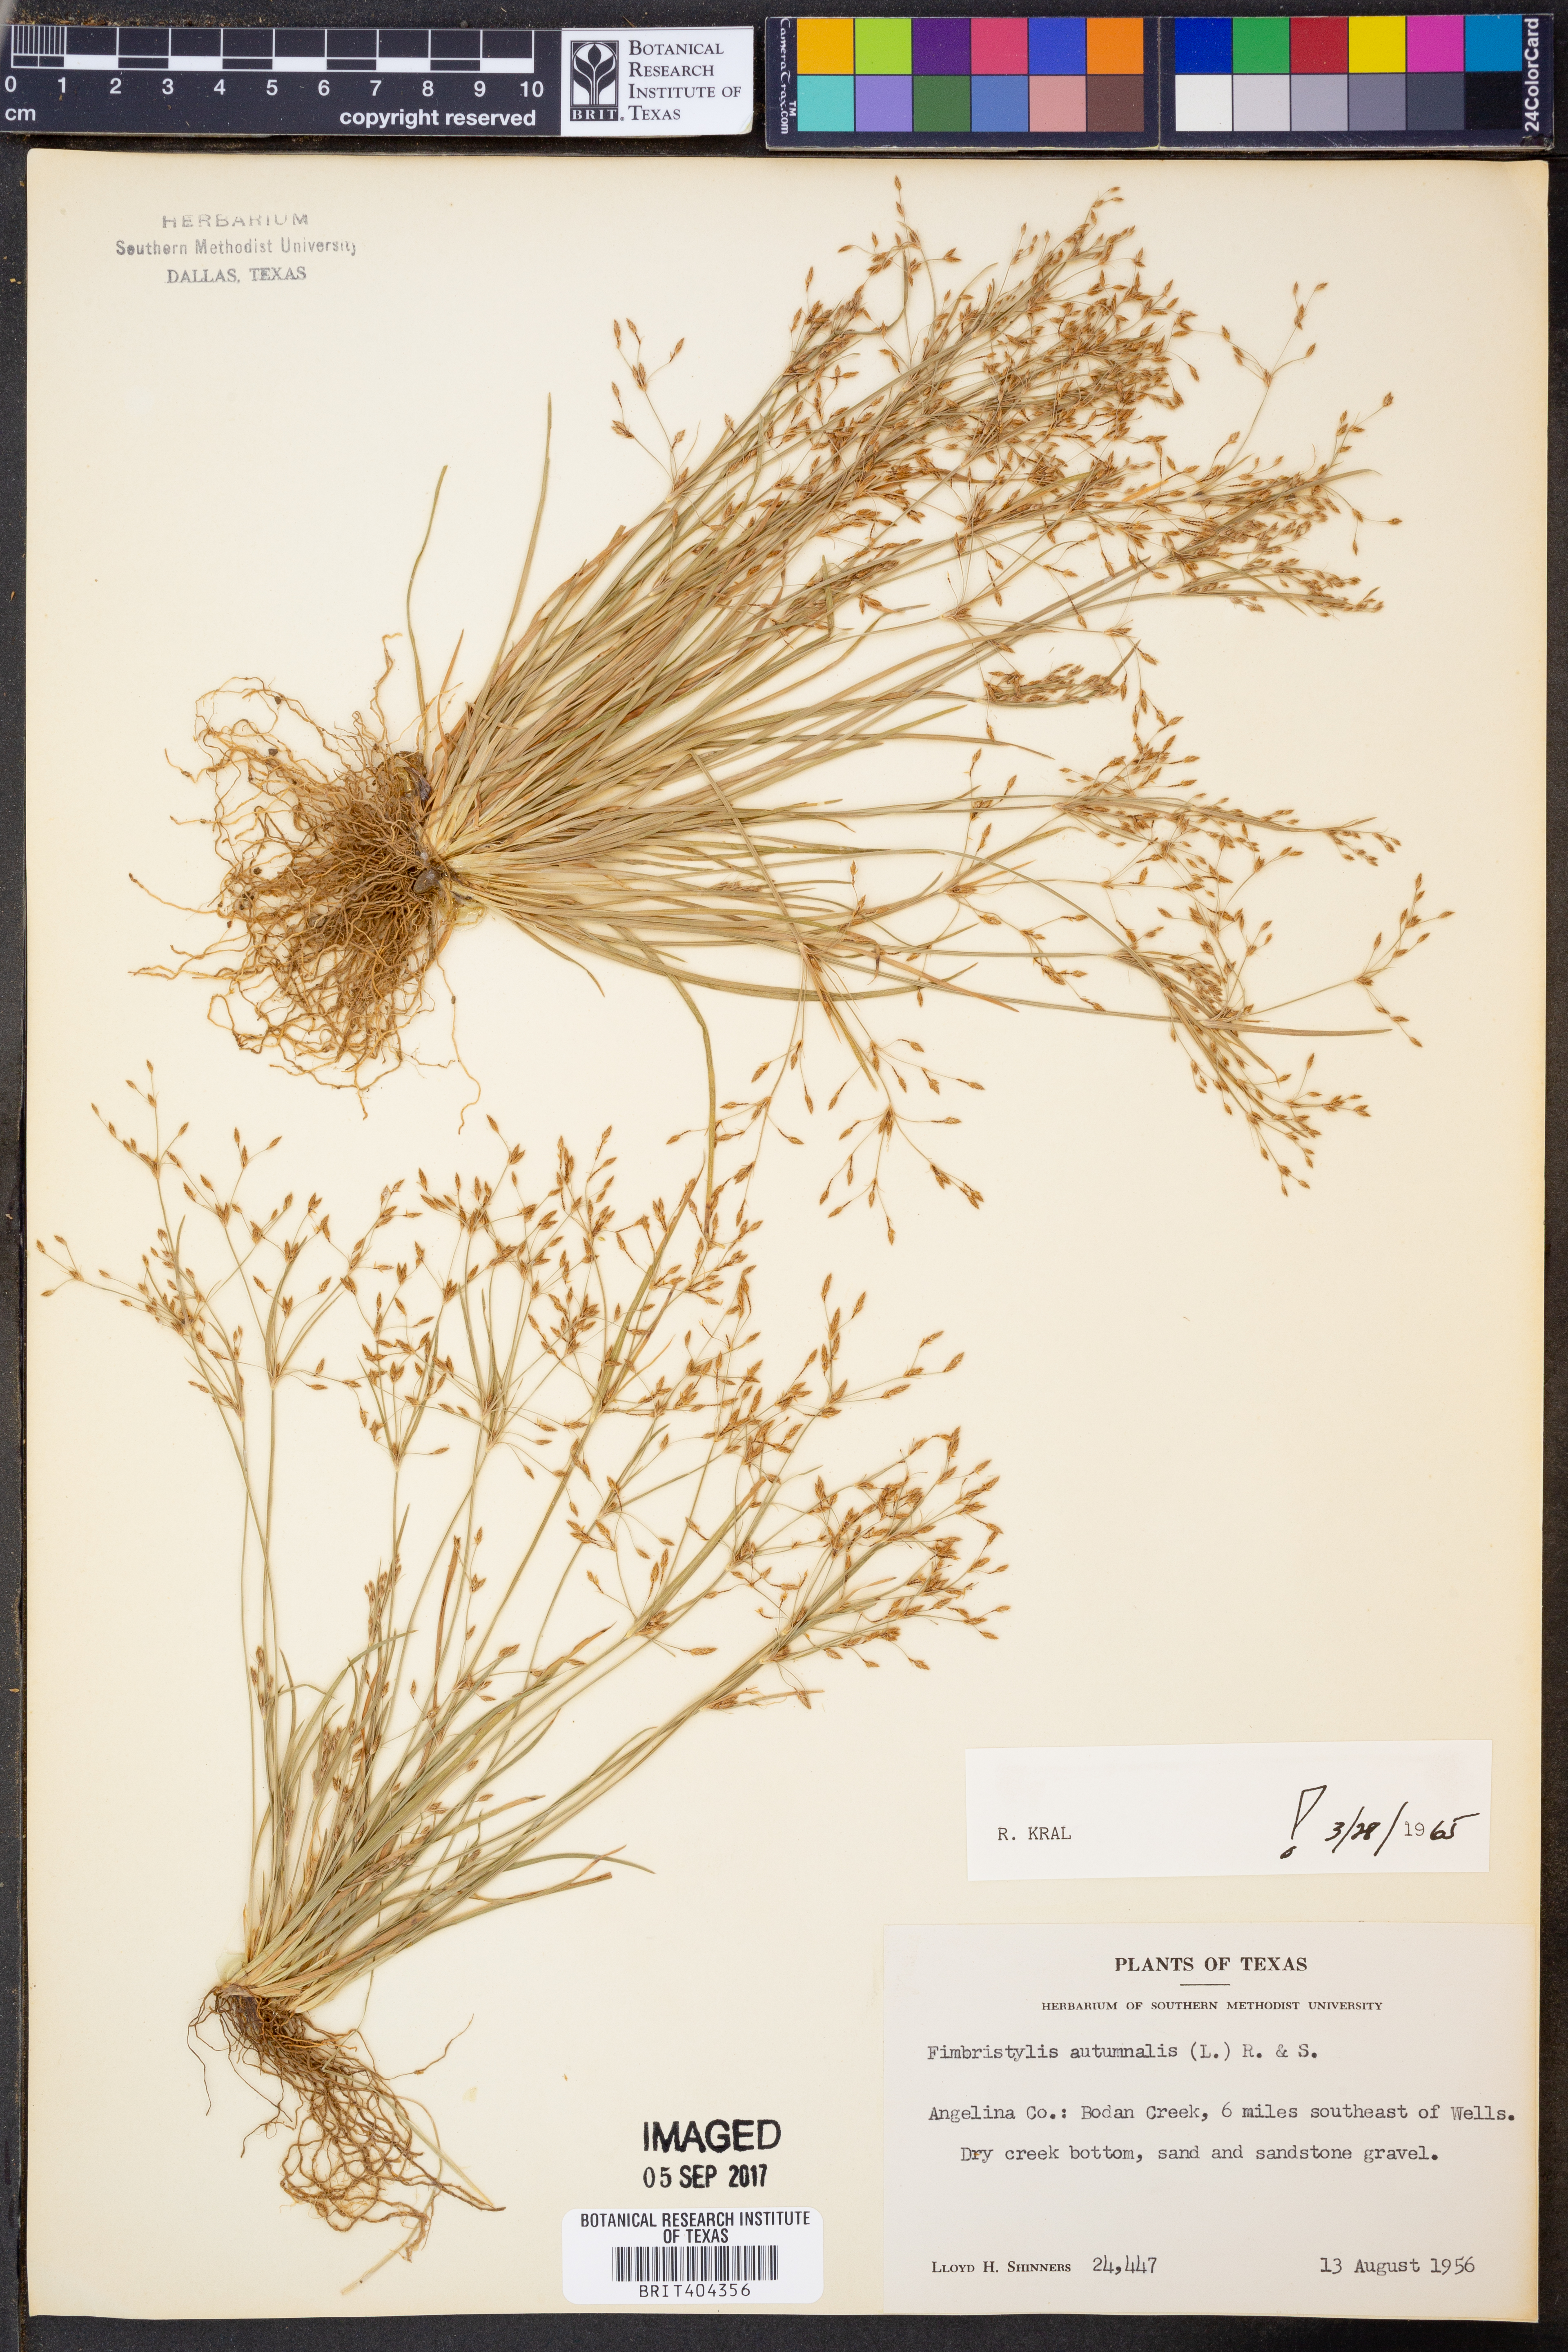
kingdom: Plantae
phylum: Tracheophyta
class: Liliopsida
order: Poales
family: Cyperaceae
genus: Fimbristylis
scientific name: Fimbristylis autumnalis
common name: Slender fimbristylis
